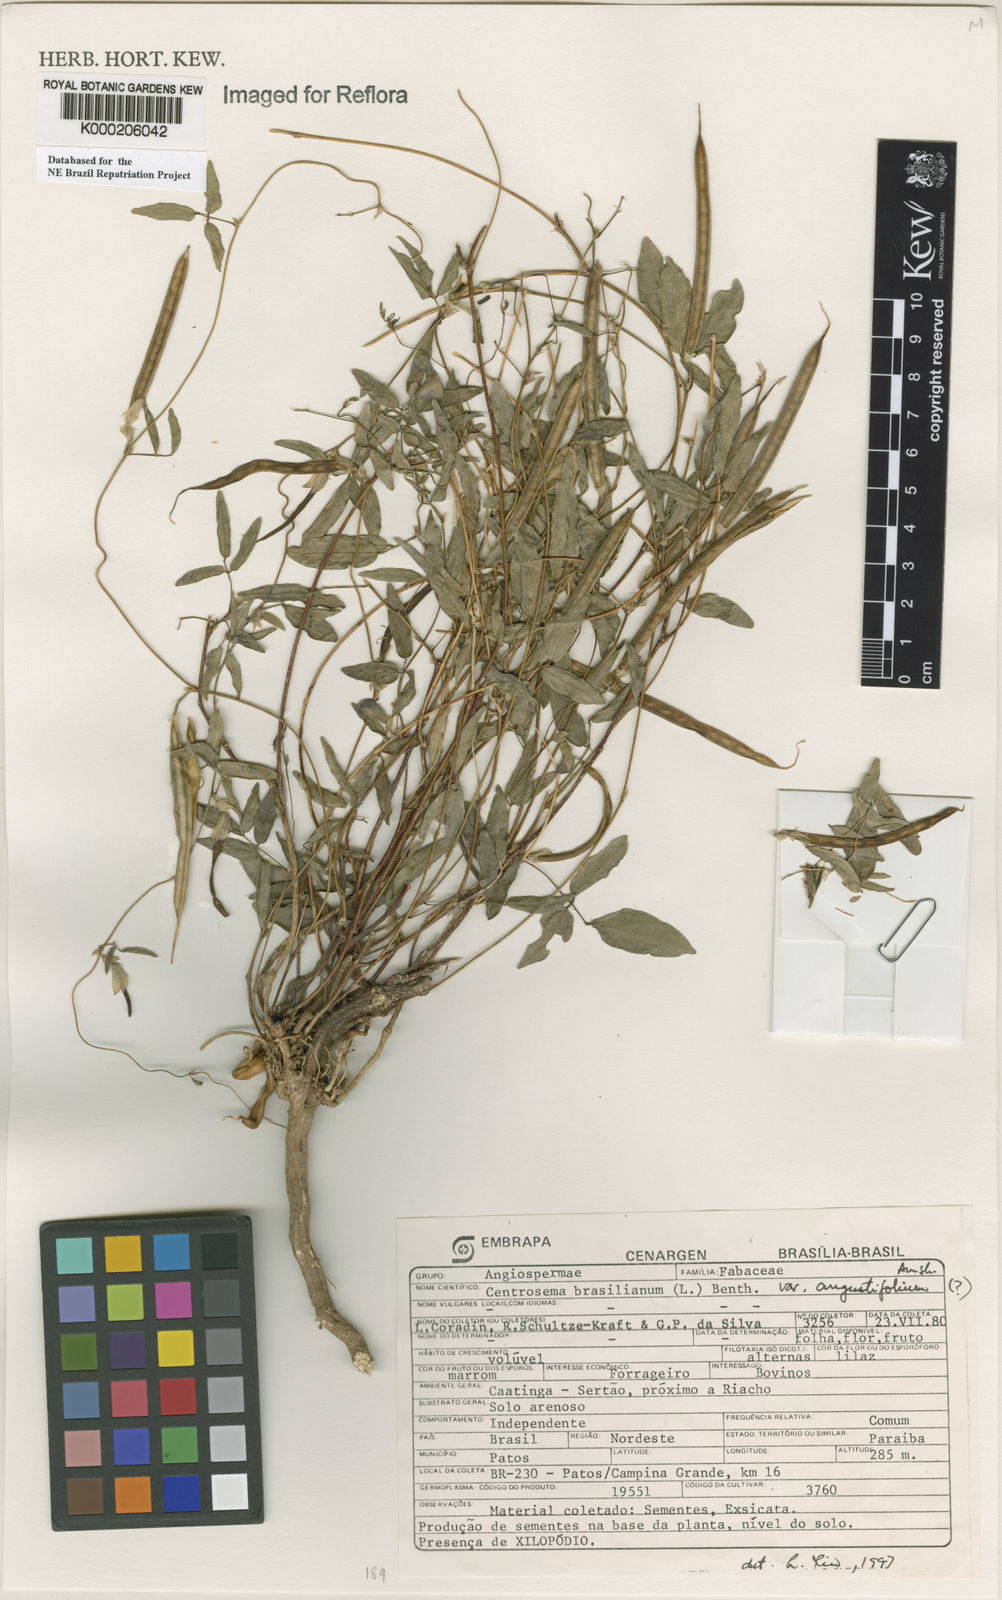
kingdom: Plantae
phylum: Tracheophyta
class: Magnoliopsida
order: Fabales
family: Fabaceae
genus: Centrosema
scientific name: Centrosema brasilianum
